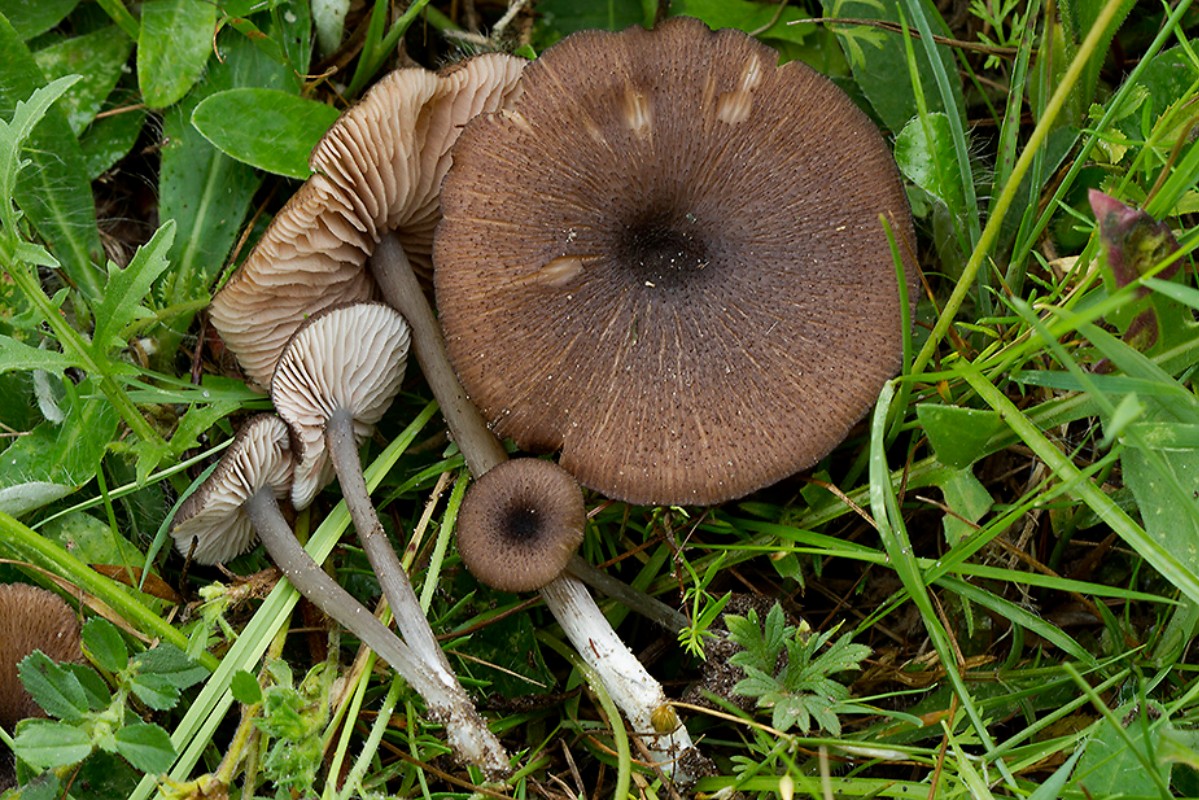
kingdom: Fungi
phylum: Basidiomycota
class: Agaricomycetes
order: Agaricales
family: Entolomataceae
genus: Entoloma
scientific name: Entoloma porphyrogriseum
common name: porfyrgrå rødblad
